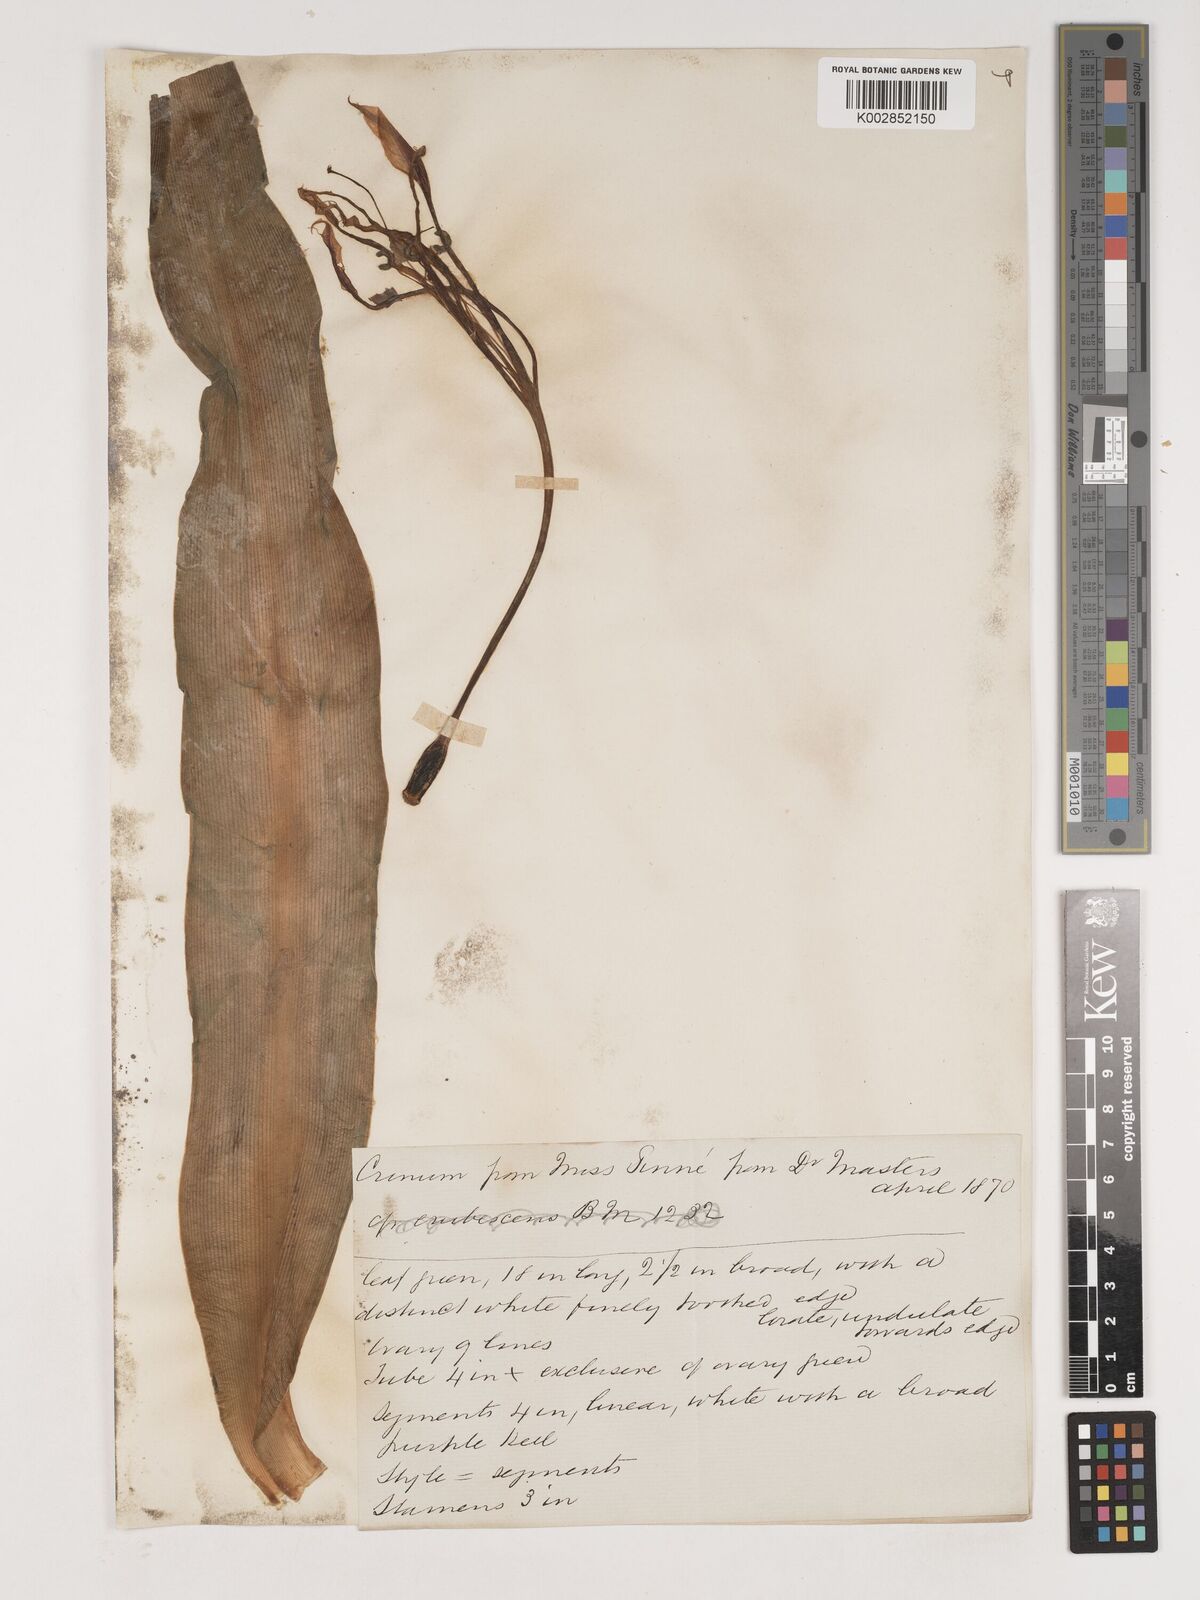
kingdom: Plantae
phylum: Tracheophyta
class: Liliopsida
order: Asparagales
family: Amaryllidaceae
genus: Crinum
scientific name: Crinum jagus
